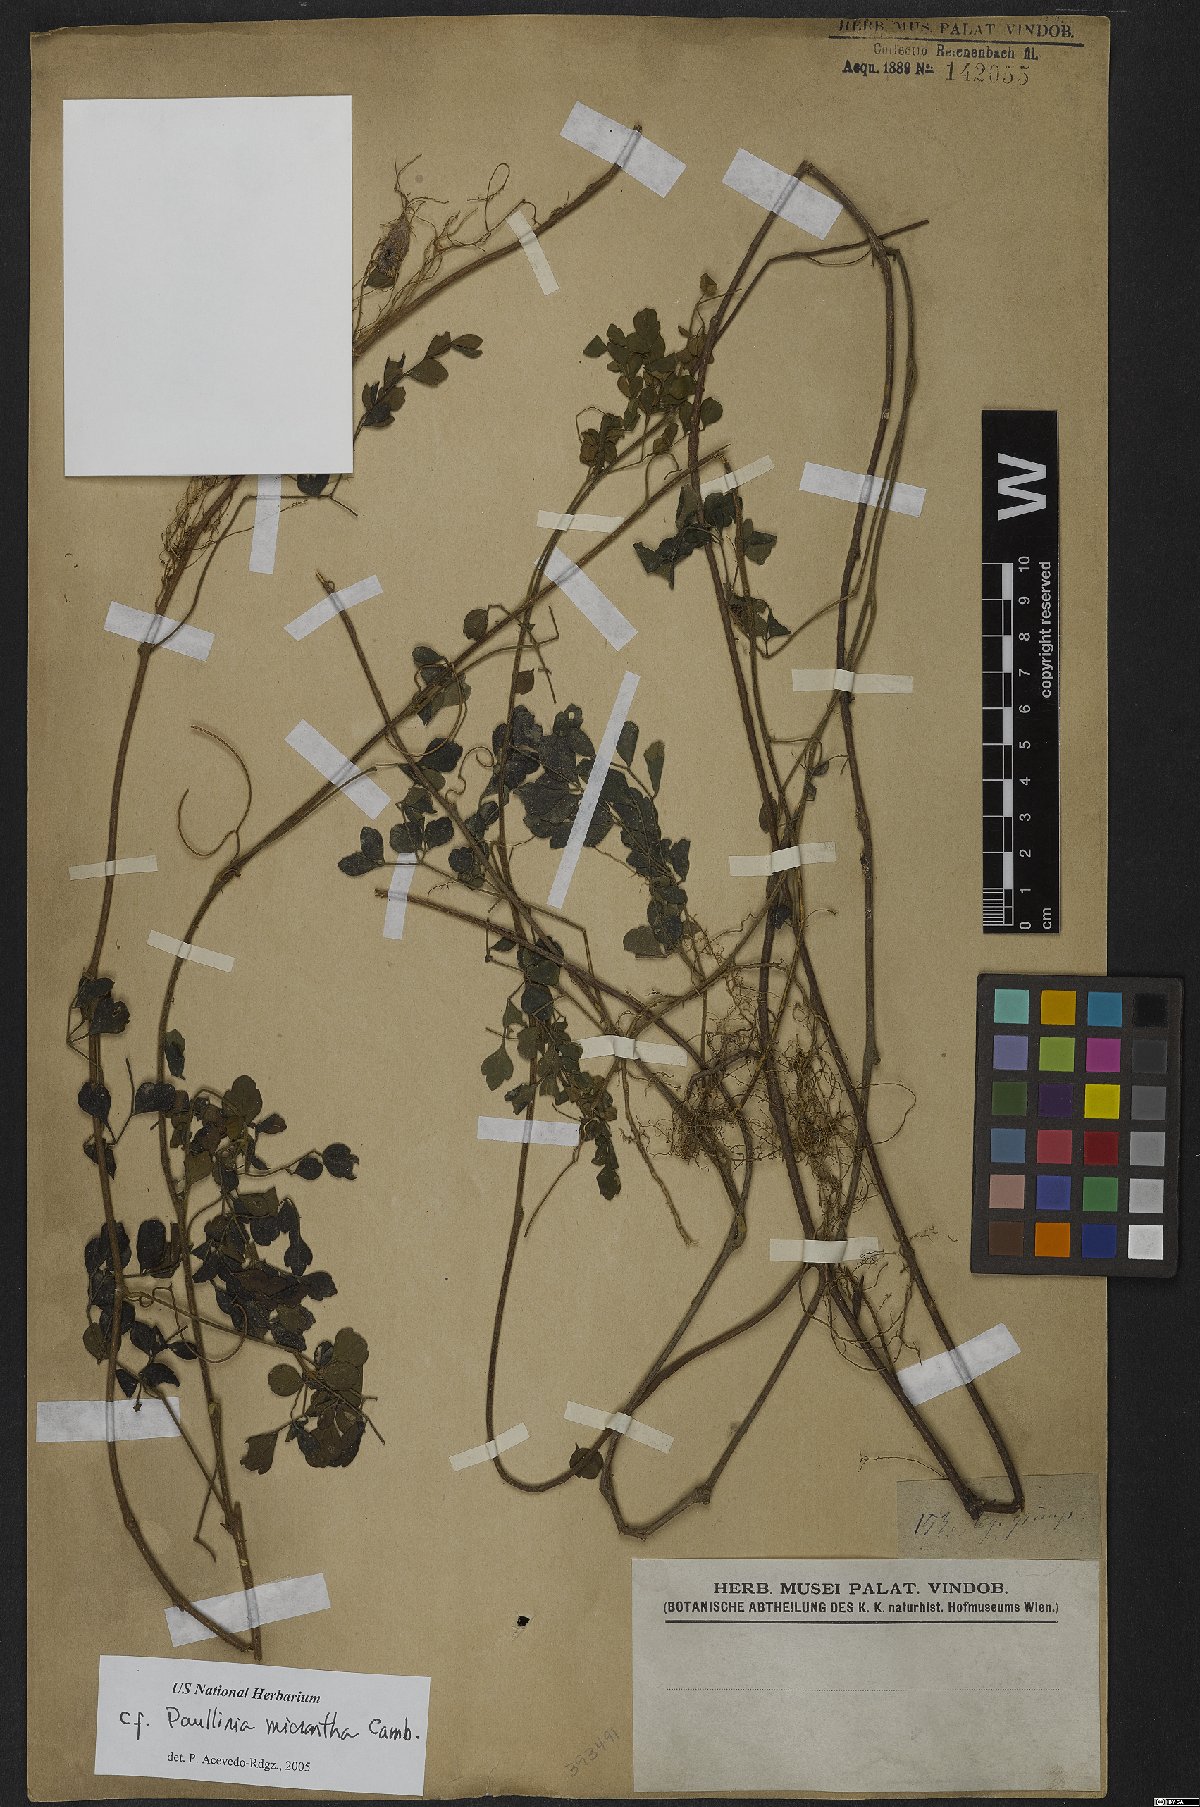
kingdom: Plantae
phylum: Tracheophyta
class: Magnoliopsida
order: Sapindales
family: Sapindaceae
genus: Paullinia
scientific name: Paullinia micrantha
